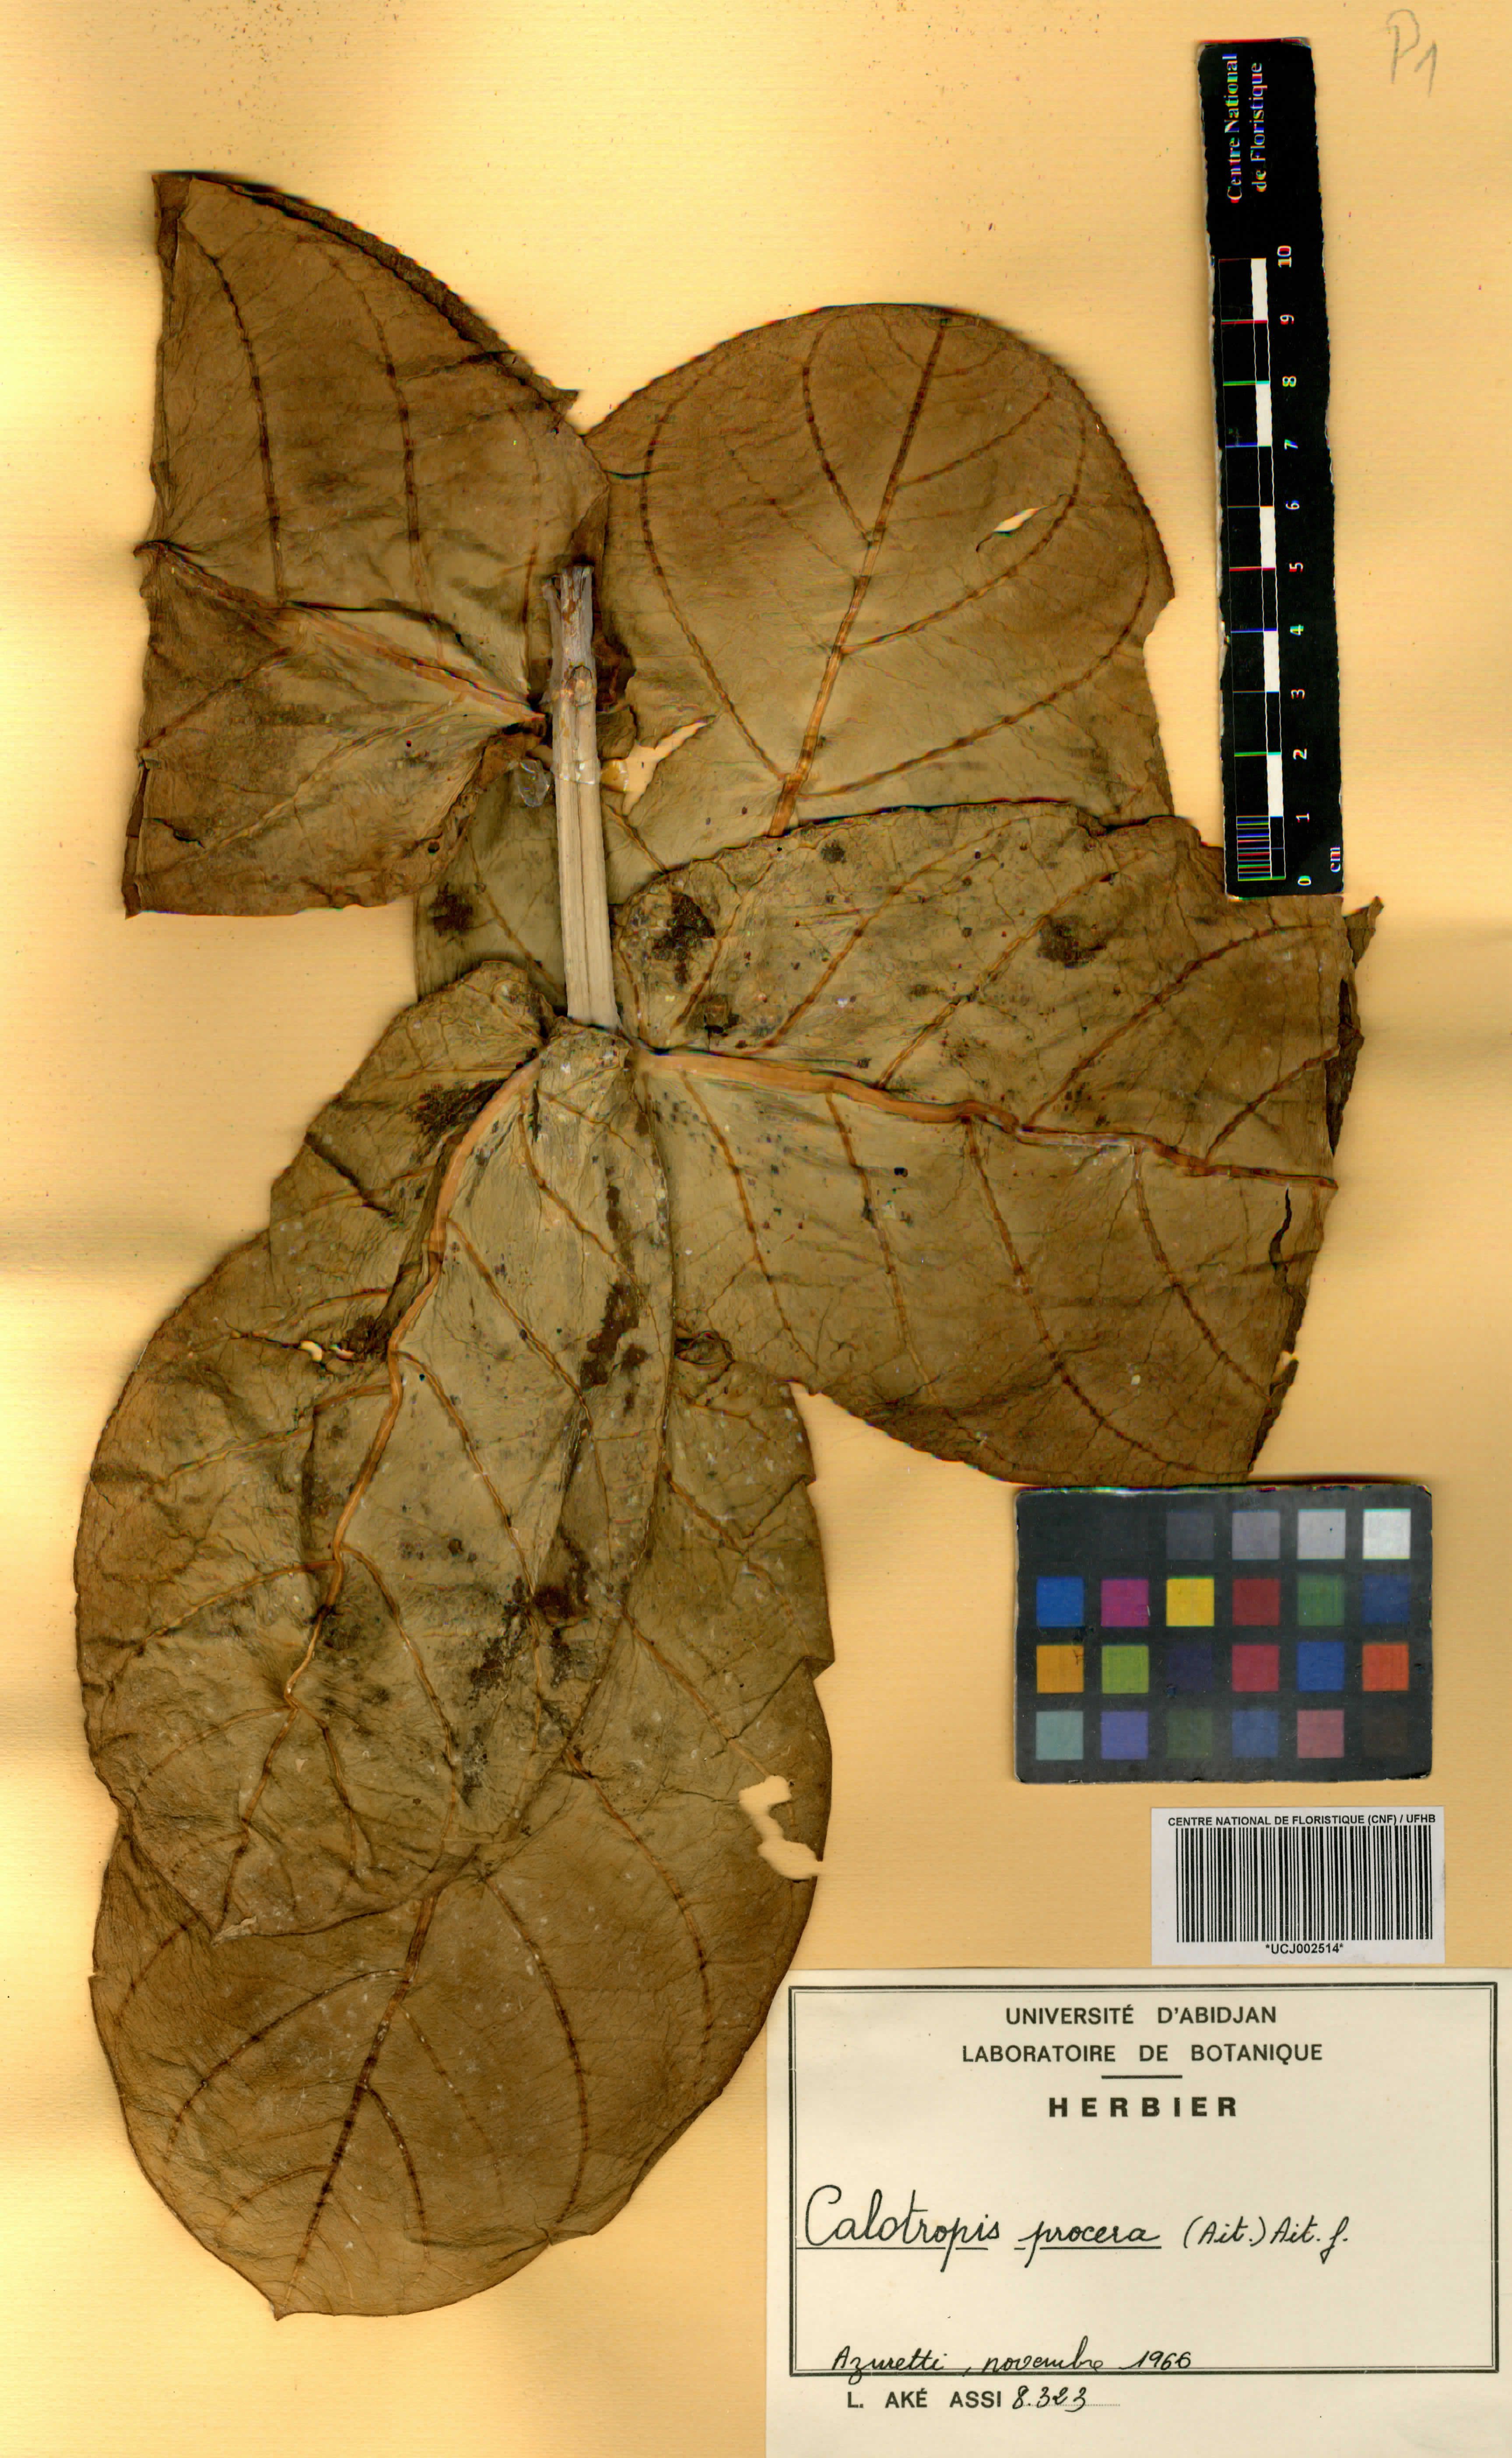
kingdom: Plantae
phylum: Tracheophyta
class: Magnoliopsida
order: Gentianales
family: Apocynaceae
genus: Calotropis
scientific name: Calotropis procera
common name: Roostertree
